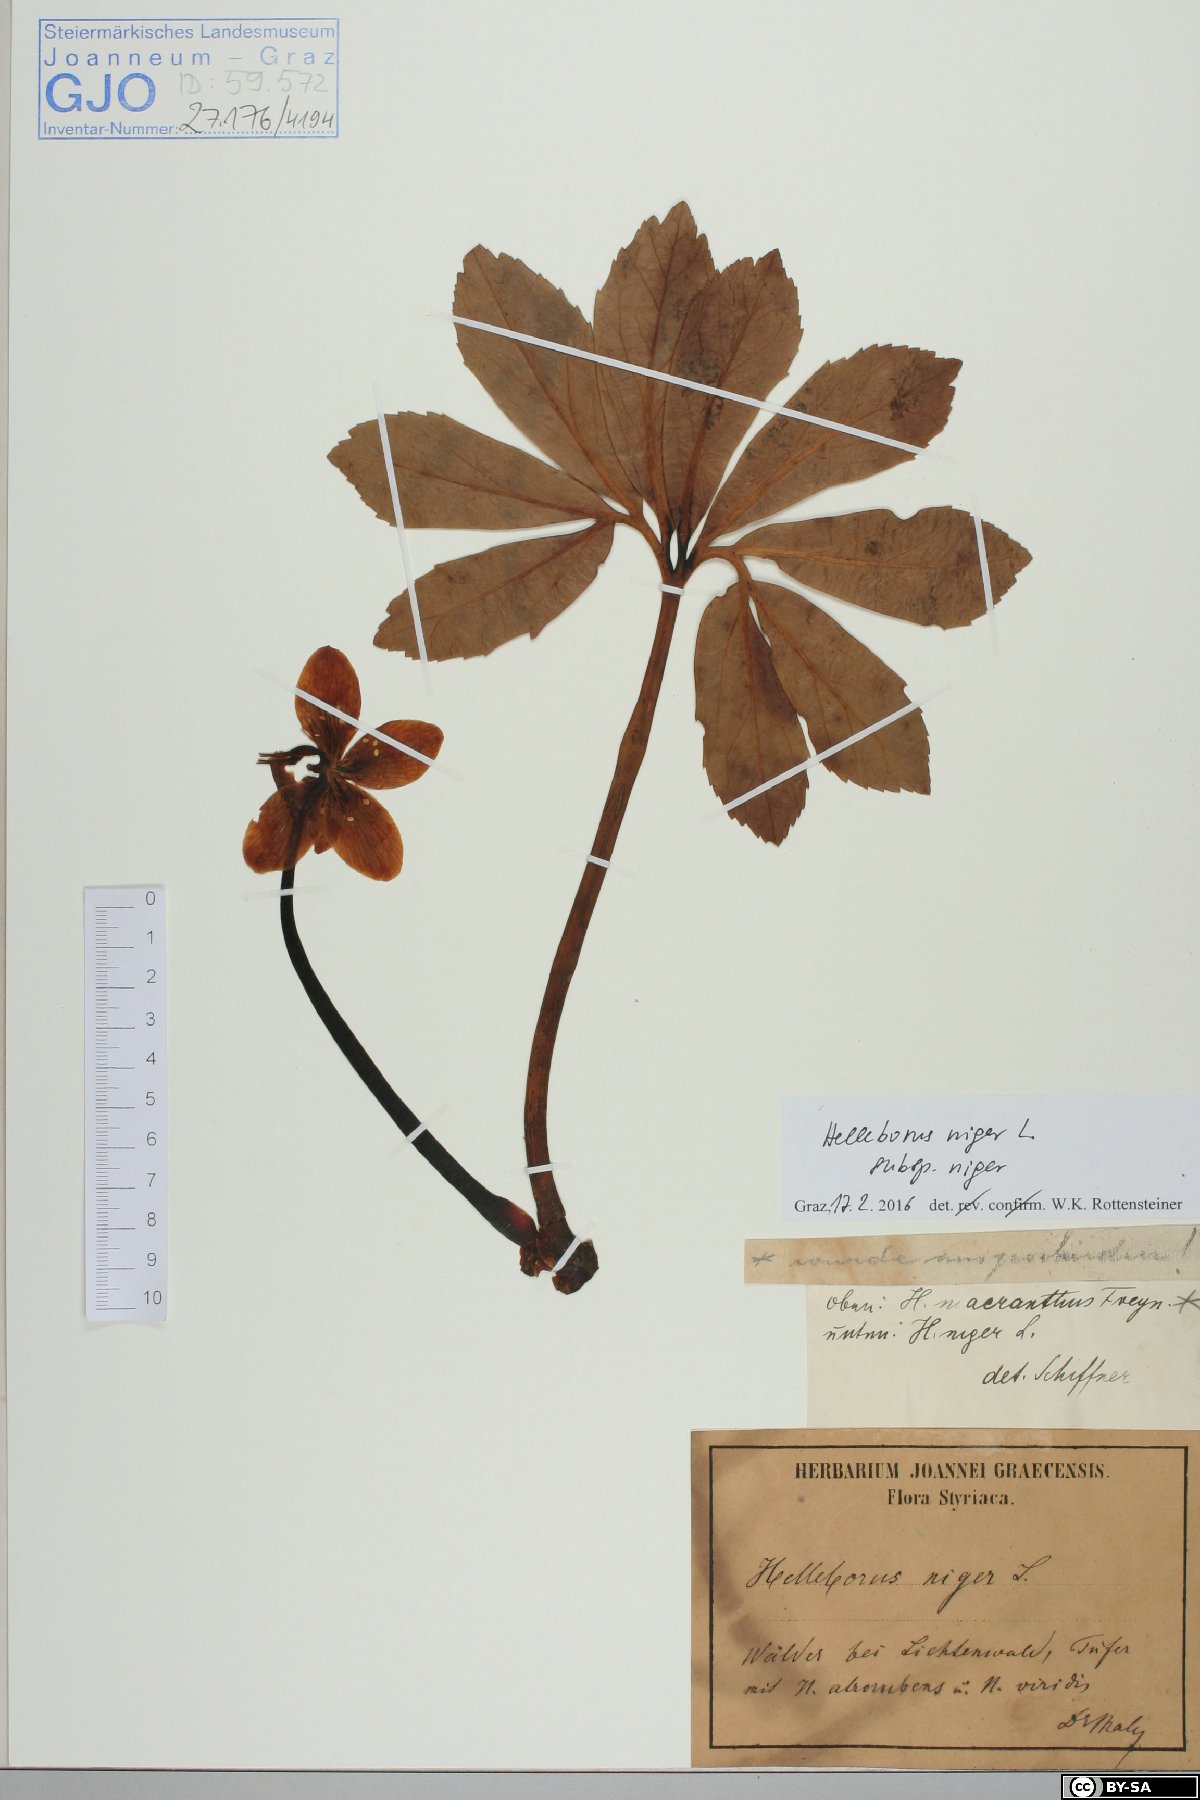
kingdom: Plantae
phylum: Tracheophyta
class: Magnoliopsida
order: Ranunculales
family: Ranunculaceae
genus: Helleborus
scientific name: Helleborus niger
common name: Black hellebore
